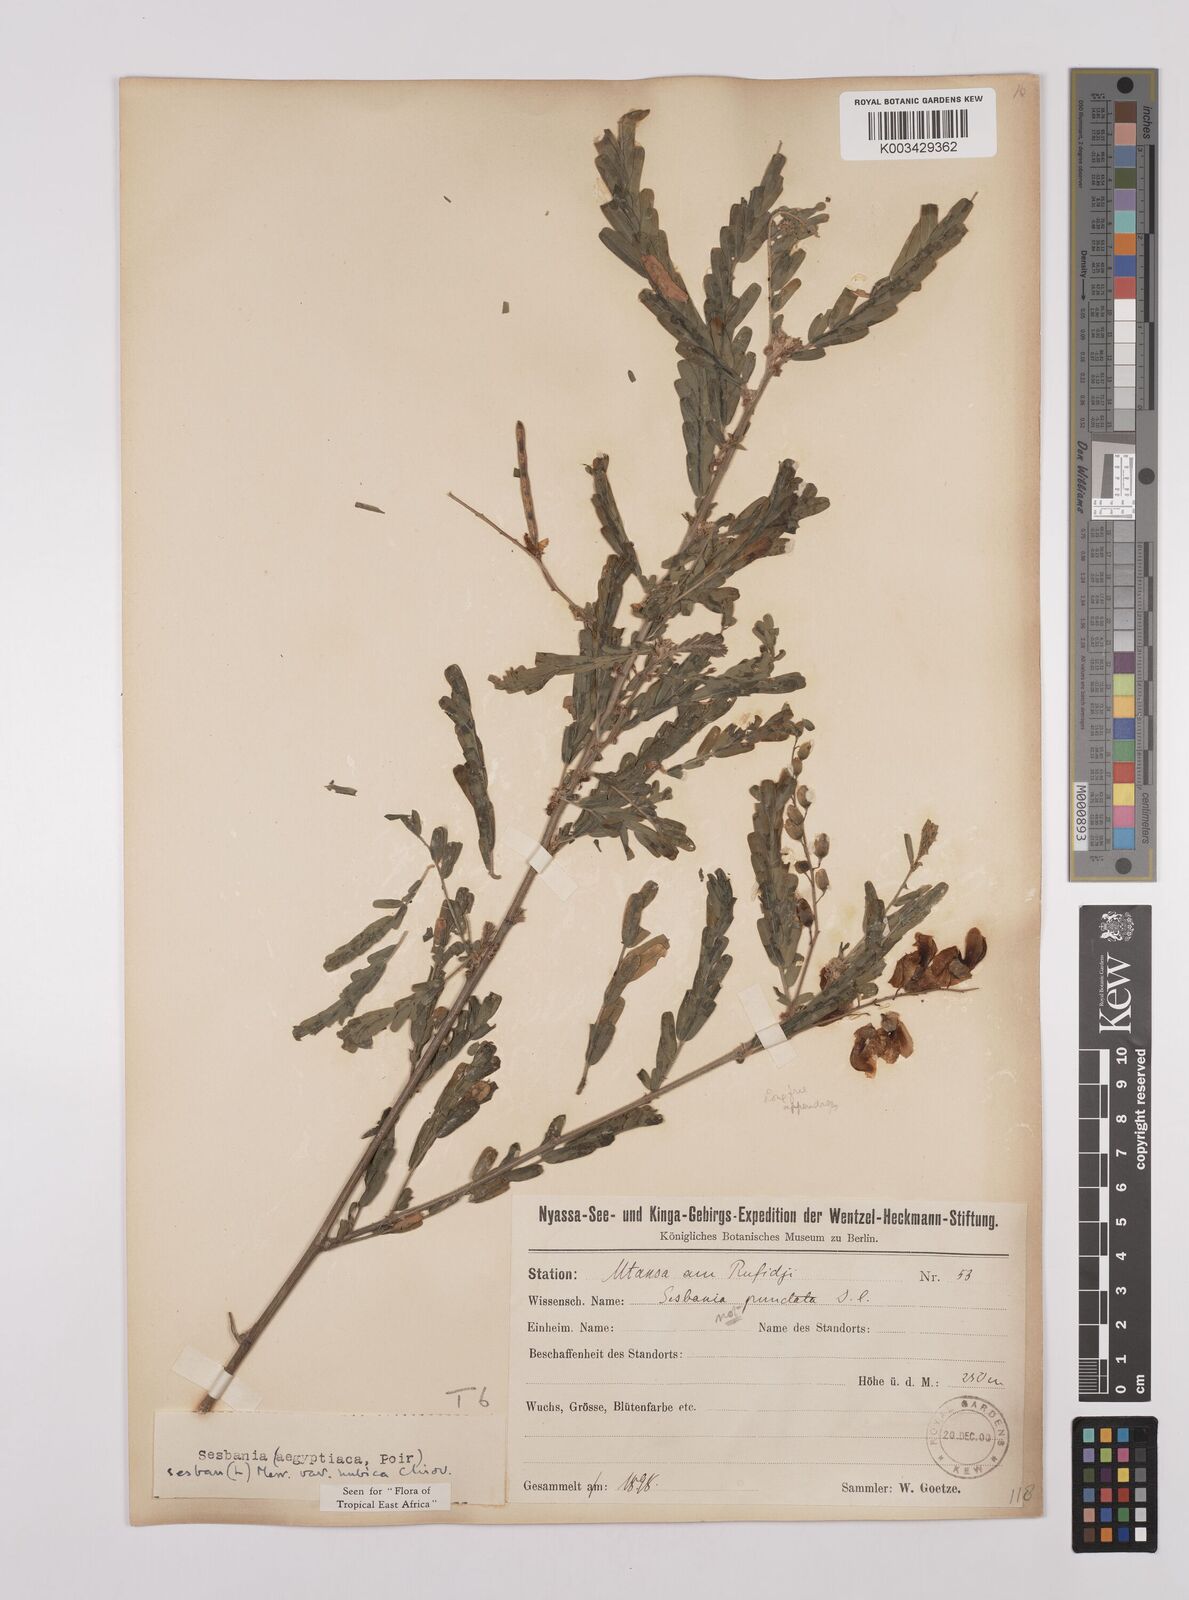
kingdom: Plantae
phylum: Tracheophyta
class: Magnoliopsida
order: Fabales
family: Fabaceae
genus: Sesbania
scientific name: Sesbania sesban
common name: Egyptian sesban
